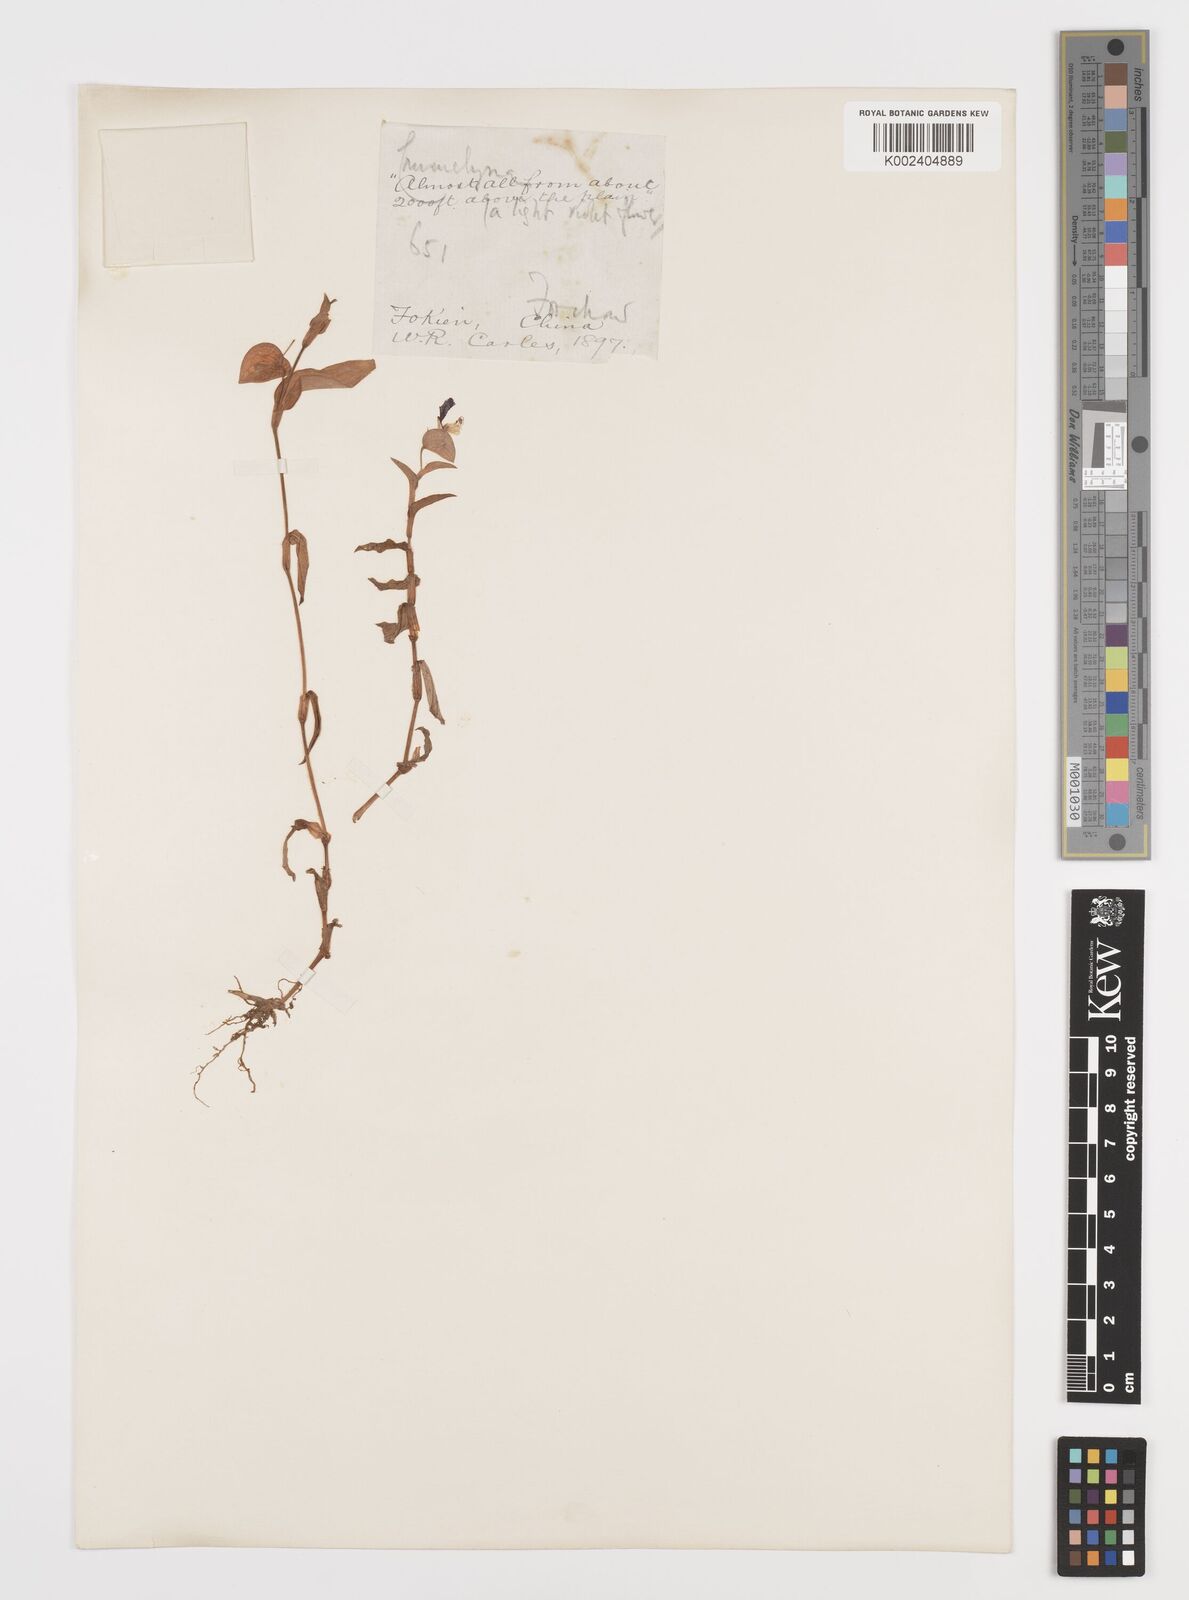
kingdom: Plantae
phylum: Tracheophyta
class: Liliopsida
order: Commelinales
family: Commelinaceae
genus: Commelina
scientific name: Commelina
